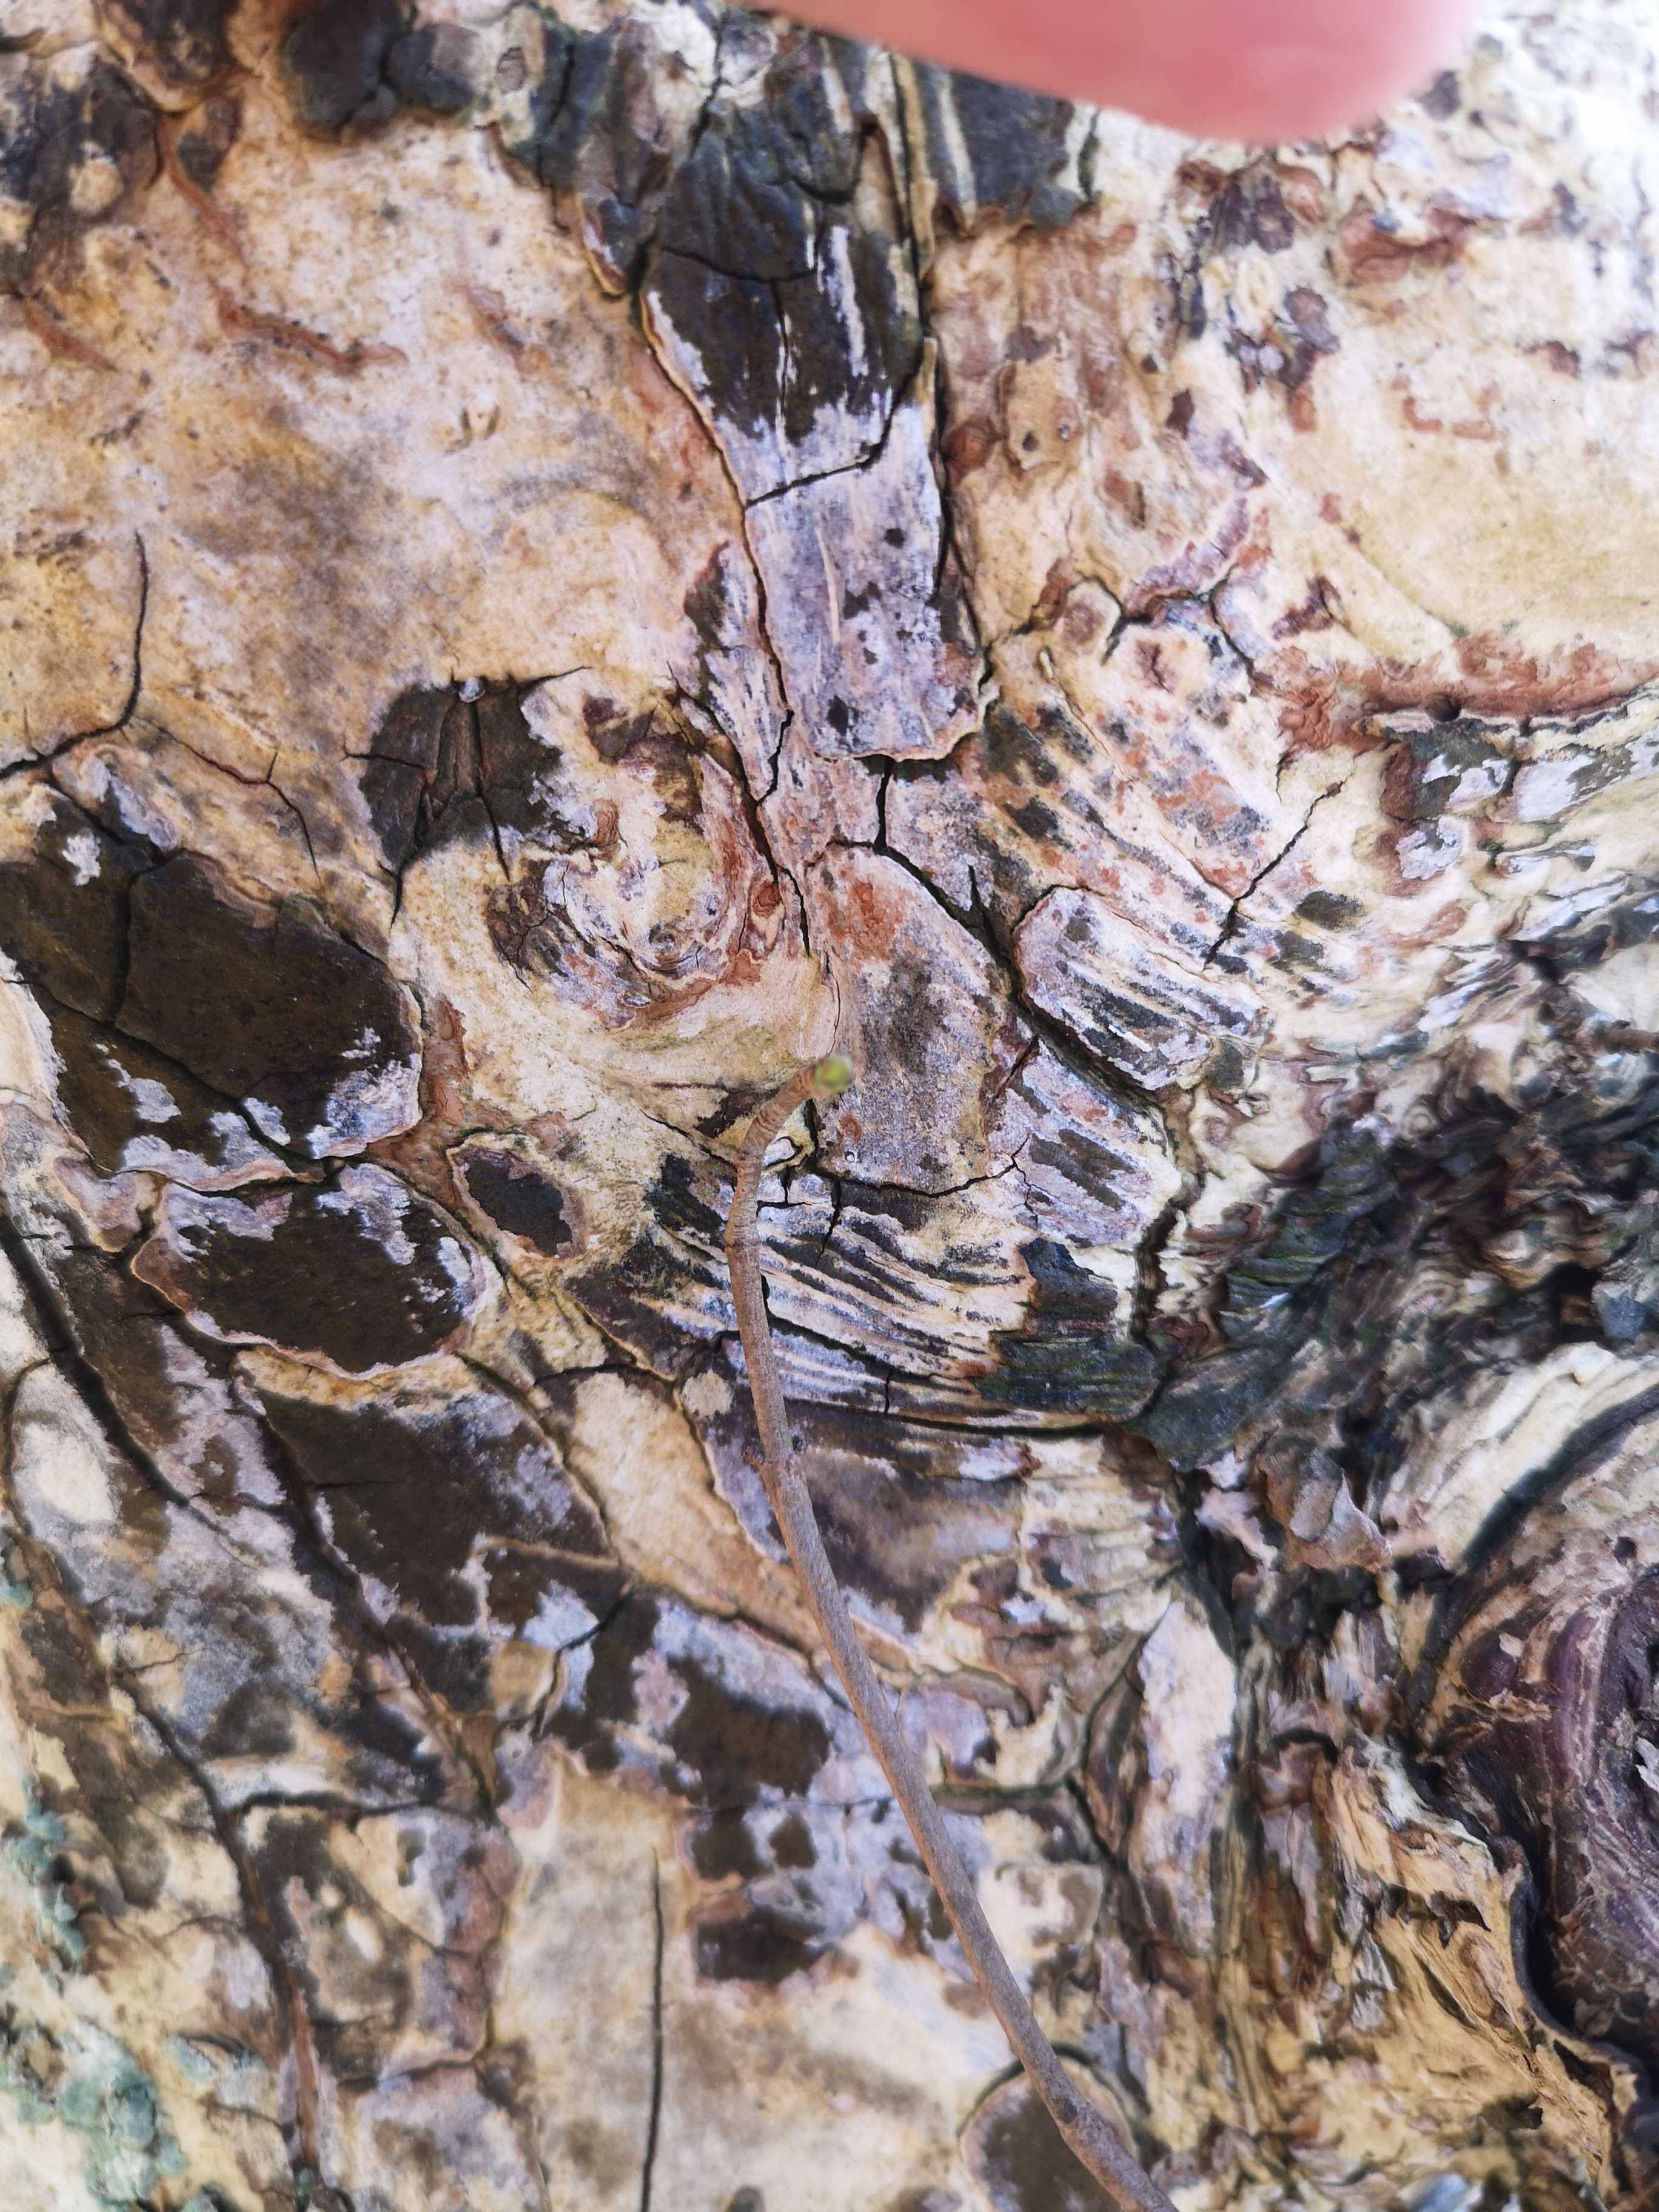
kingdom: Fungi
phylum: Basidiomycota
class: Agaricomycetes
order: Agaricales
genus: Dendrothele
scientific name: Dendrothele acerina
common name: navr-kalkplet
